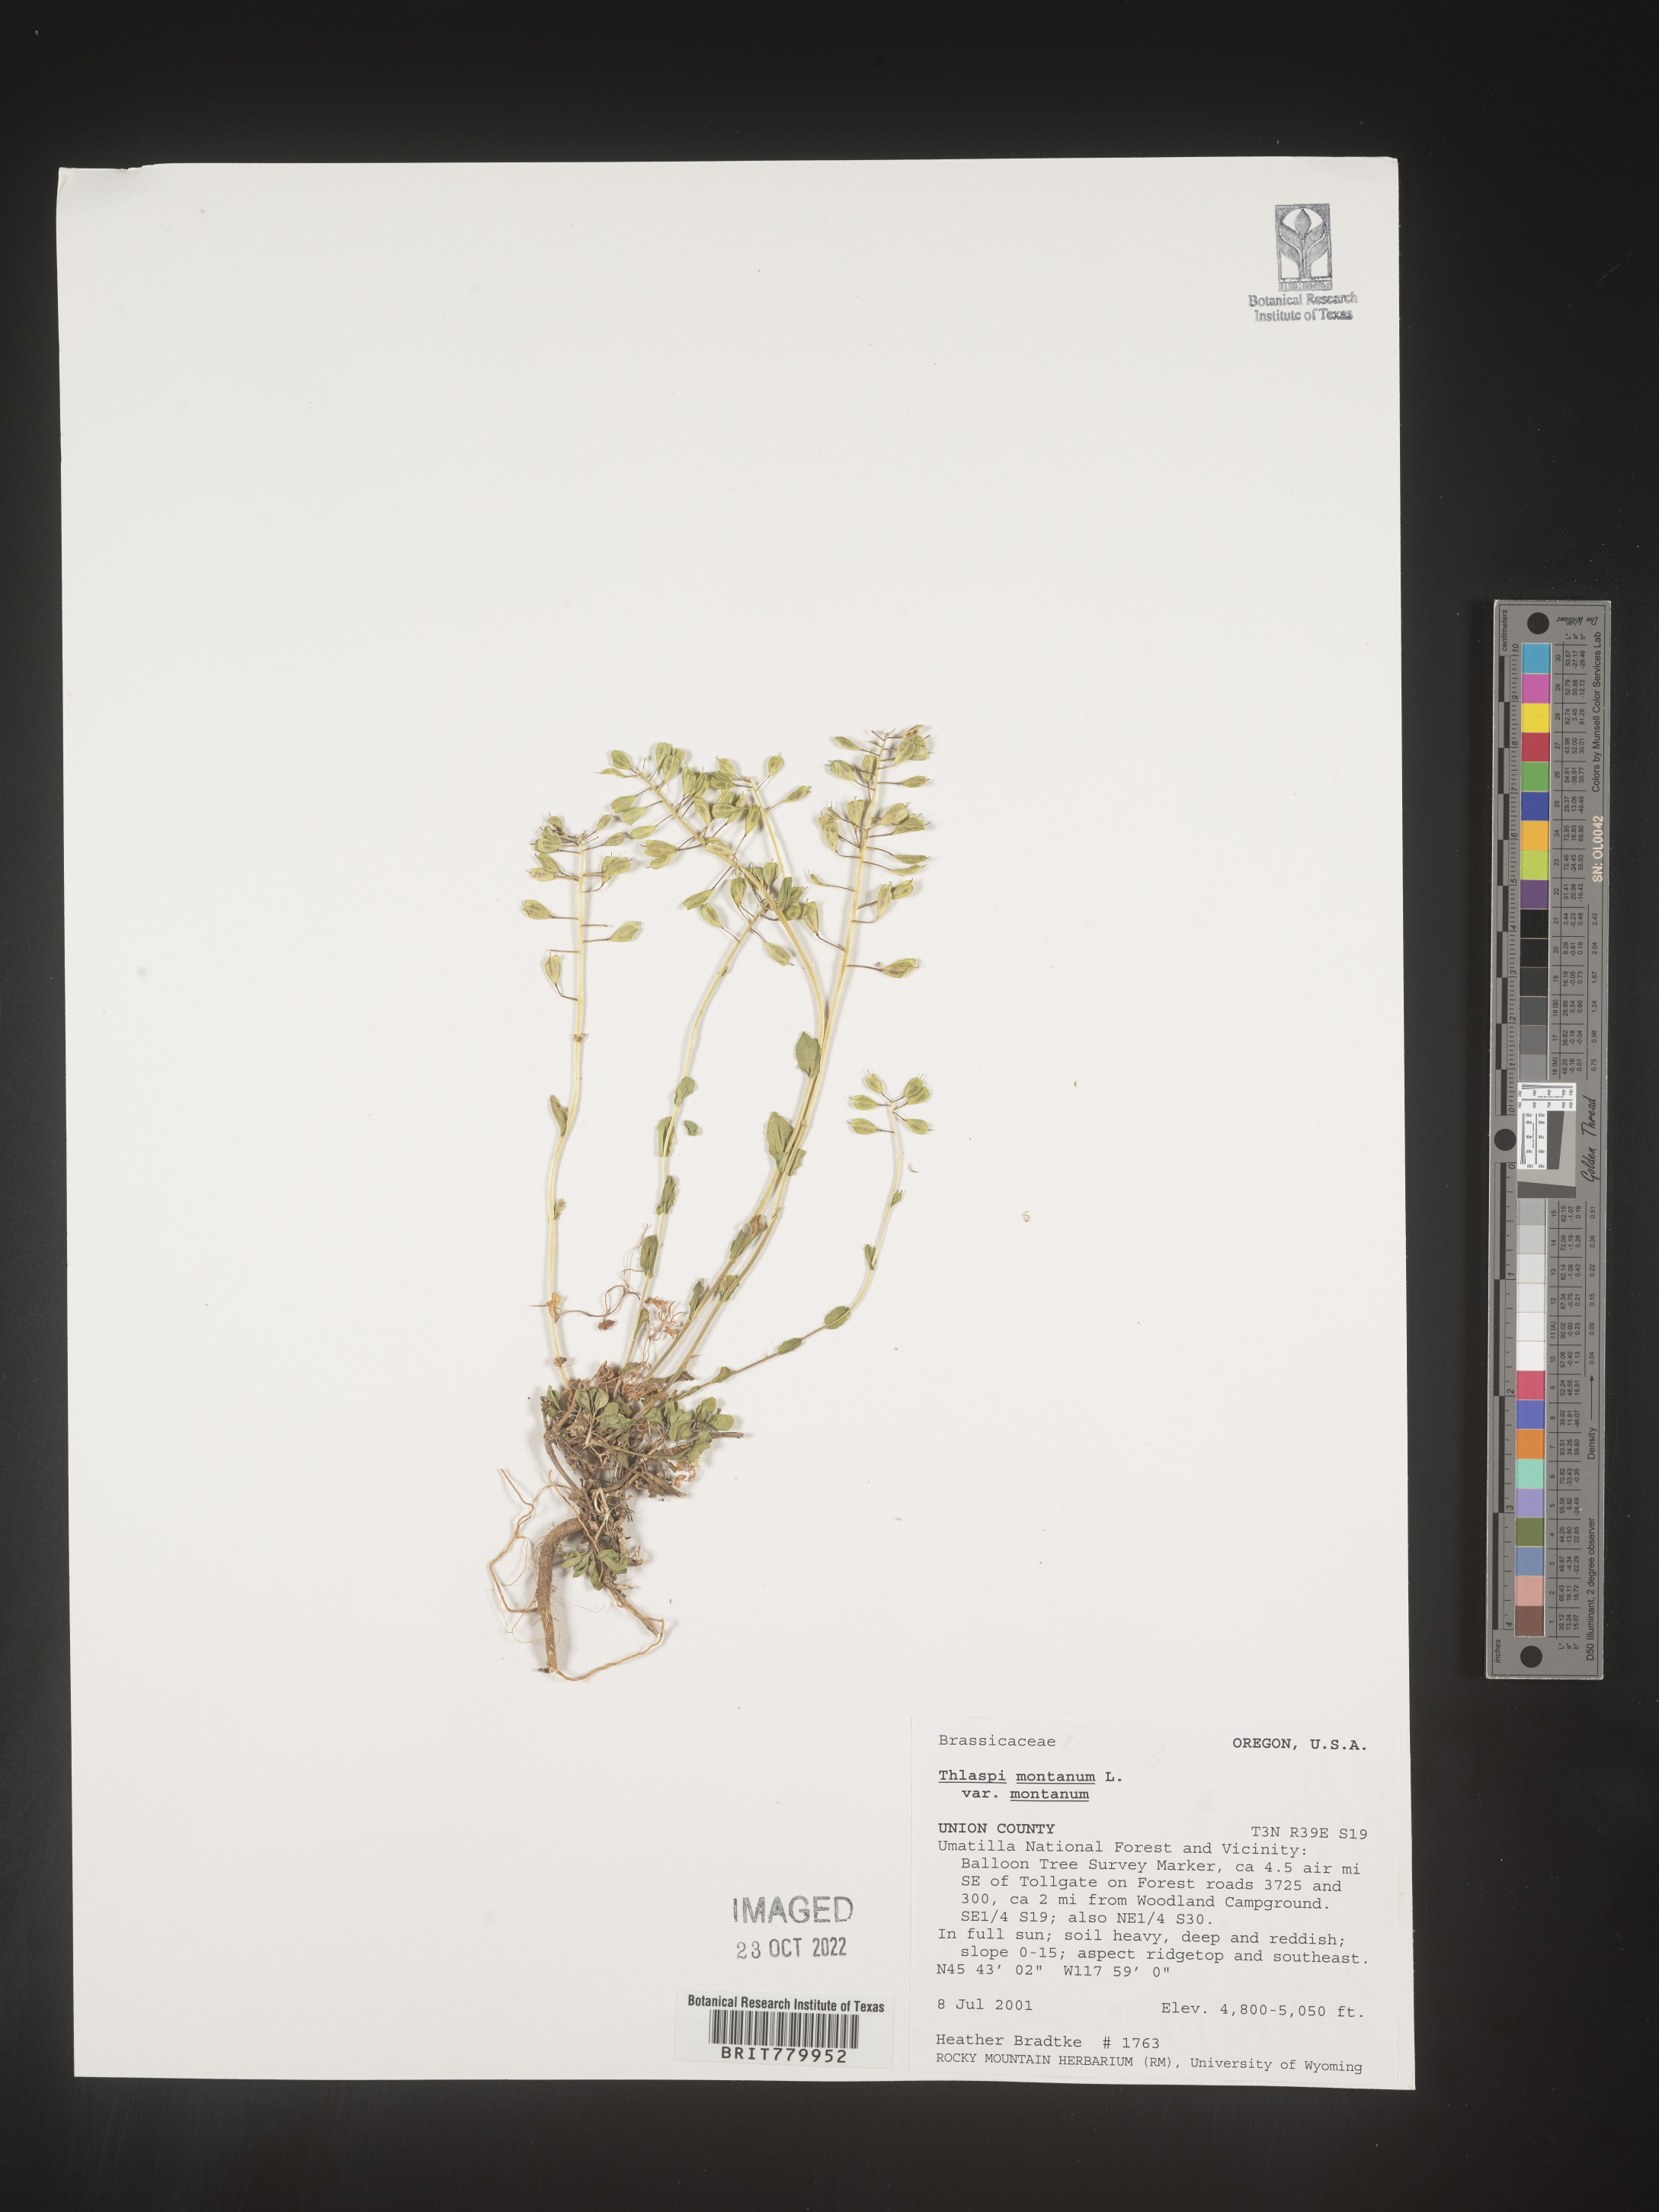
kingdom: Plantae
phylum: Tracheophyta
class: Magnoliopsida
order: Brassicales
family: Brassicaceae
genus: Thlaspi
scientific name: Thlaspi
